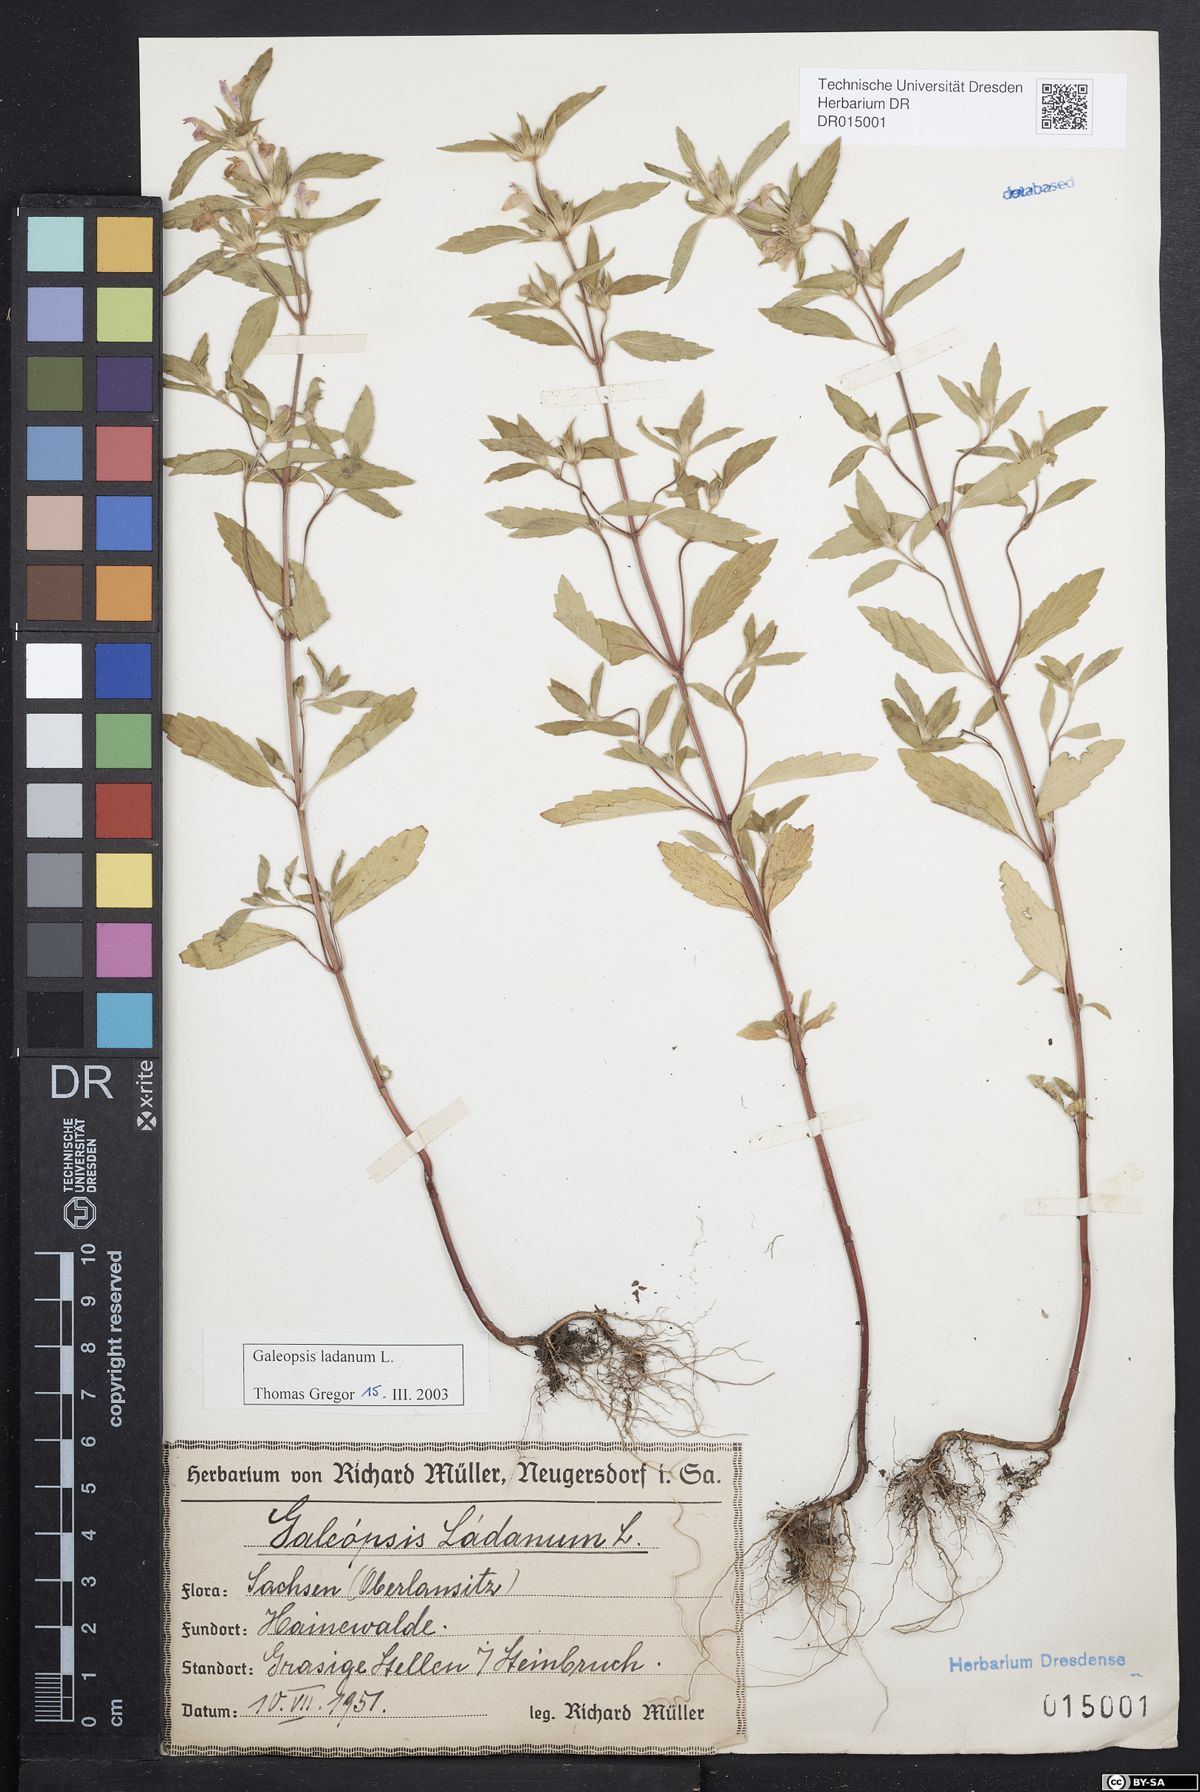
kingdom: Plantae
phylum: Tracheophyta
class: Magnoliopsida
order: Lamiales
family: Lamiaceae
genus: Galeopsis
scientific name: Galeopsis ladanum
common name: Broad-leaved hemp-nettle
